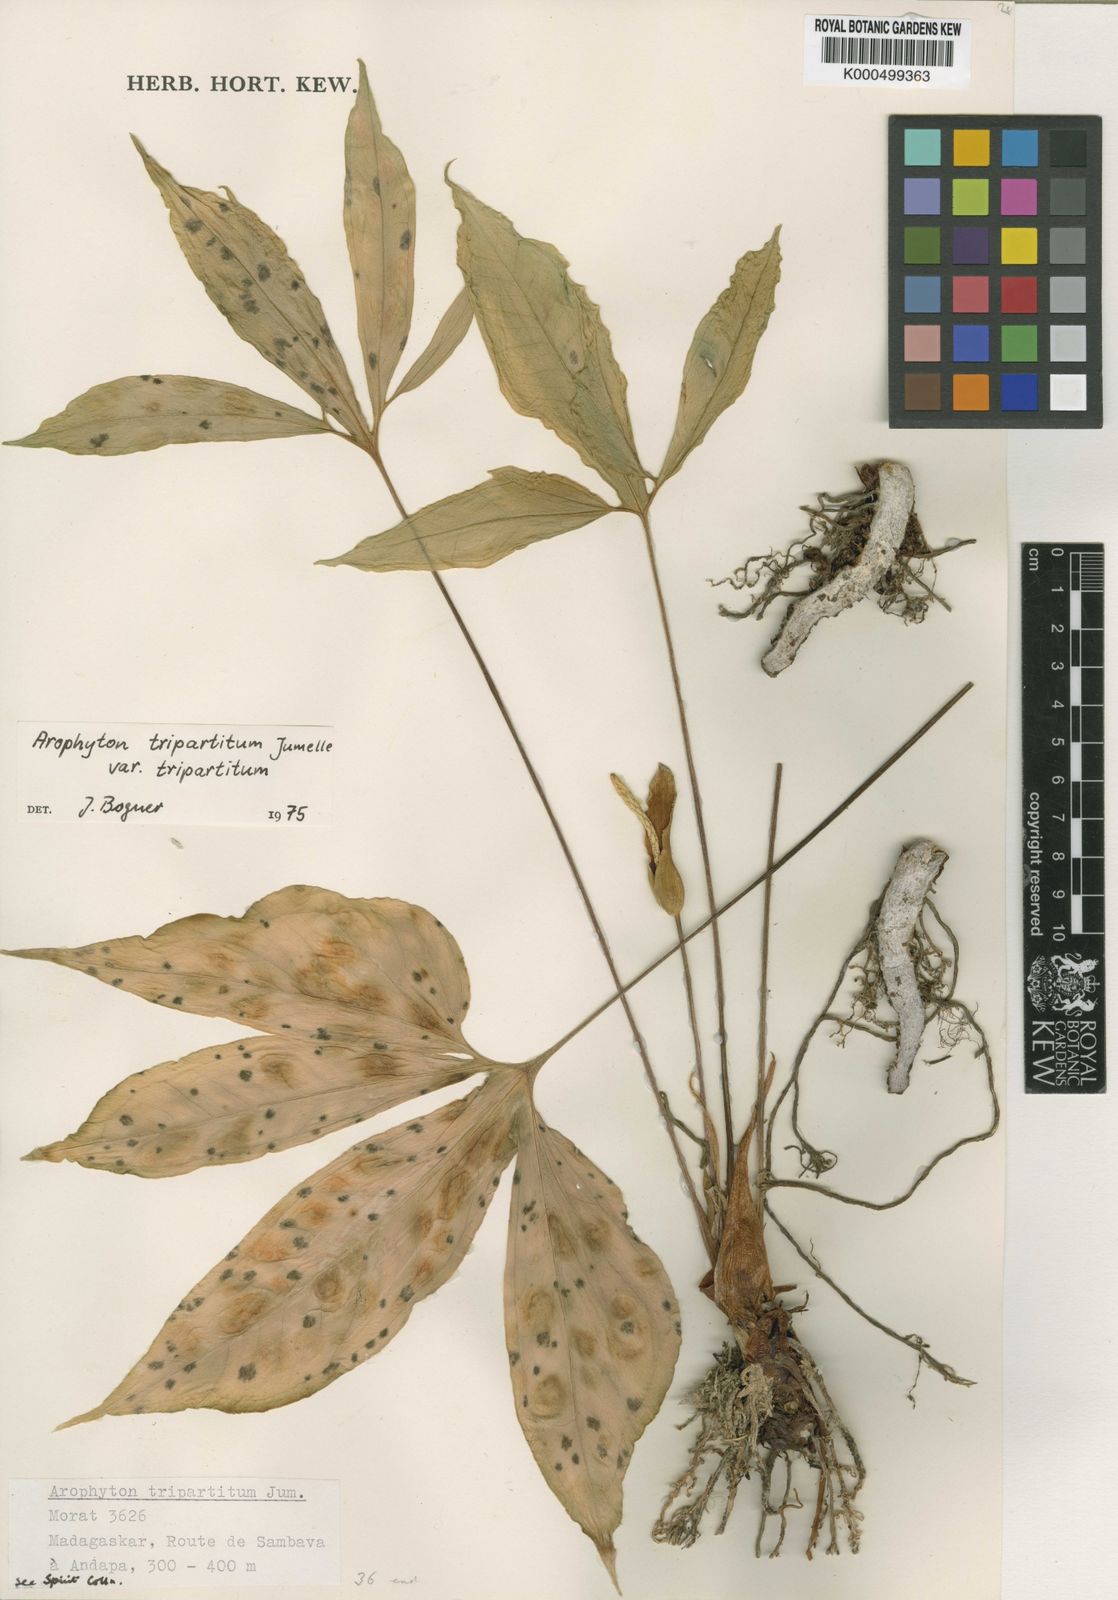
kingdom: Plantae
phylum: Tracheophyta
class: Liliopsida
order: Alismatales
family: Araceae
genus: Arophyton
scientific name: Arophyton tripartitum
